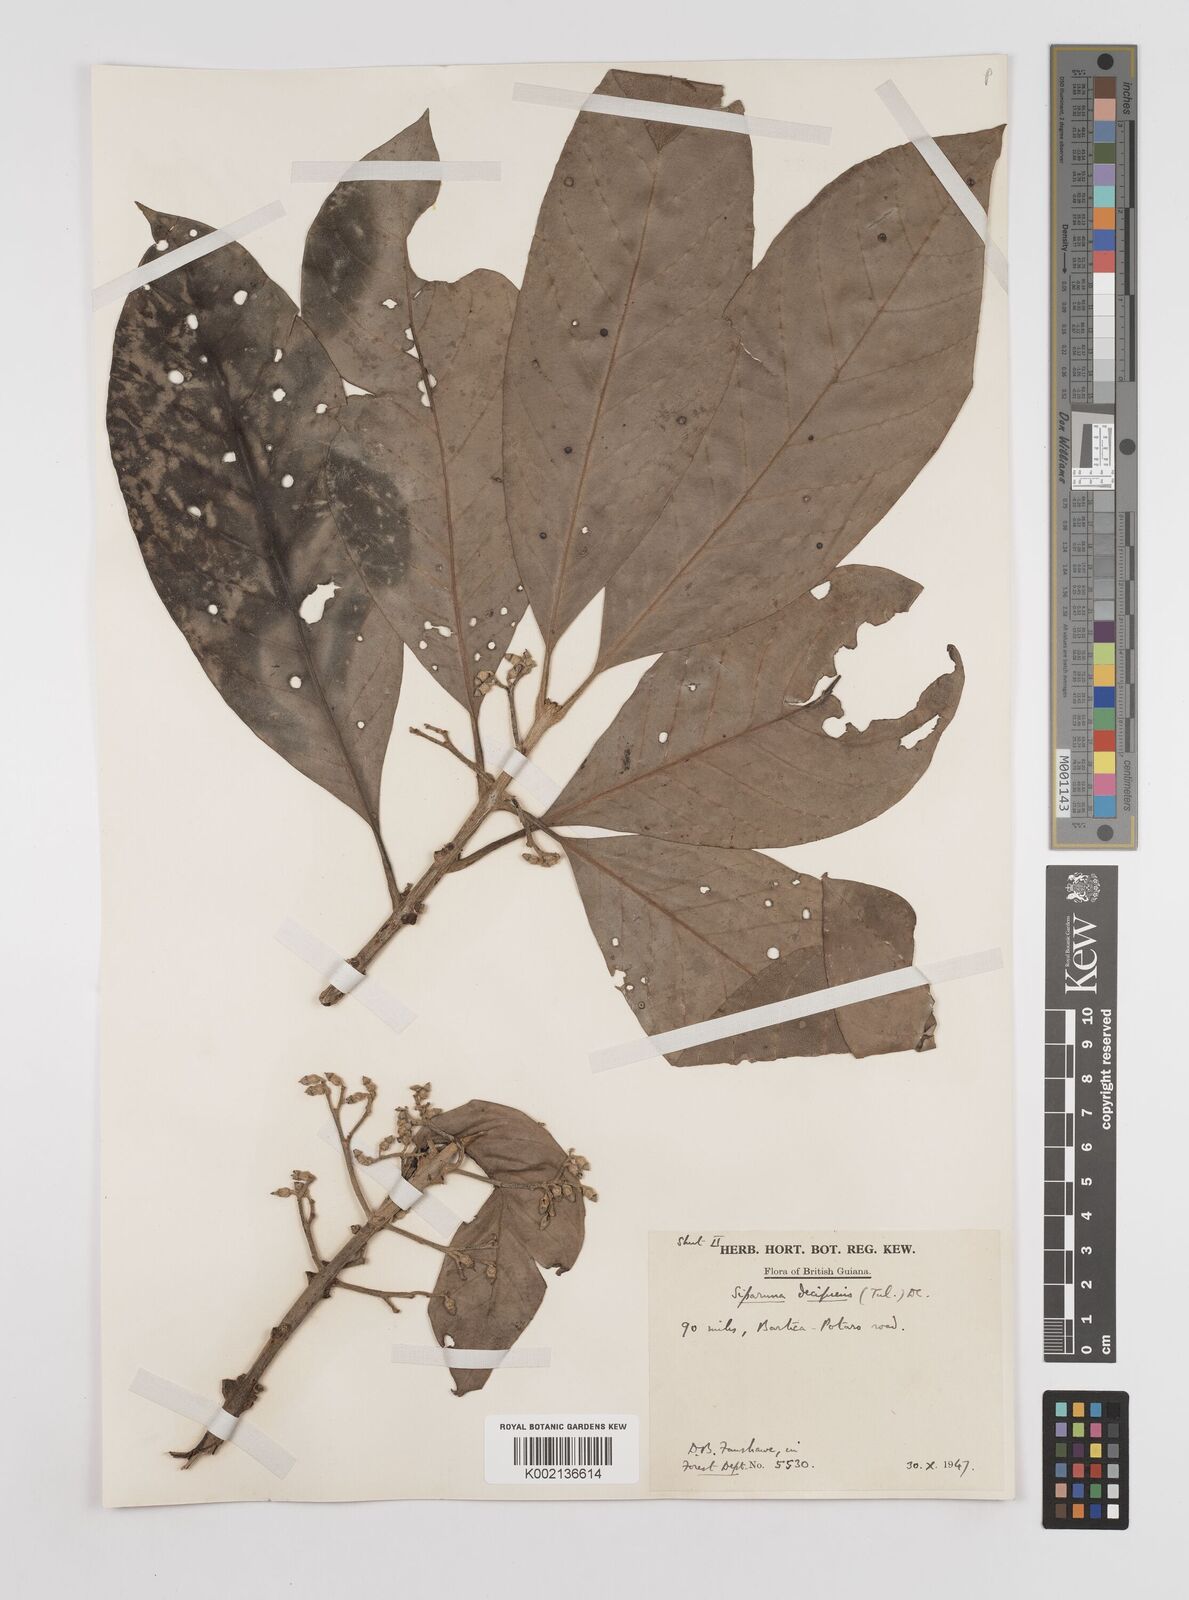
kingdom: Plantae
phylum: Tracheophyta
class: Magnoliopsida
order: Laurales
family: Siparunaceae
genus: Siparuna
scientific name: Siparuna decipiens
